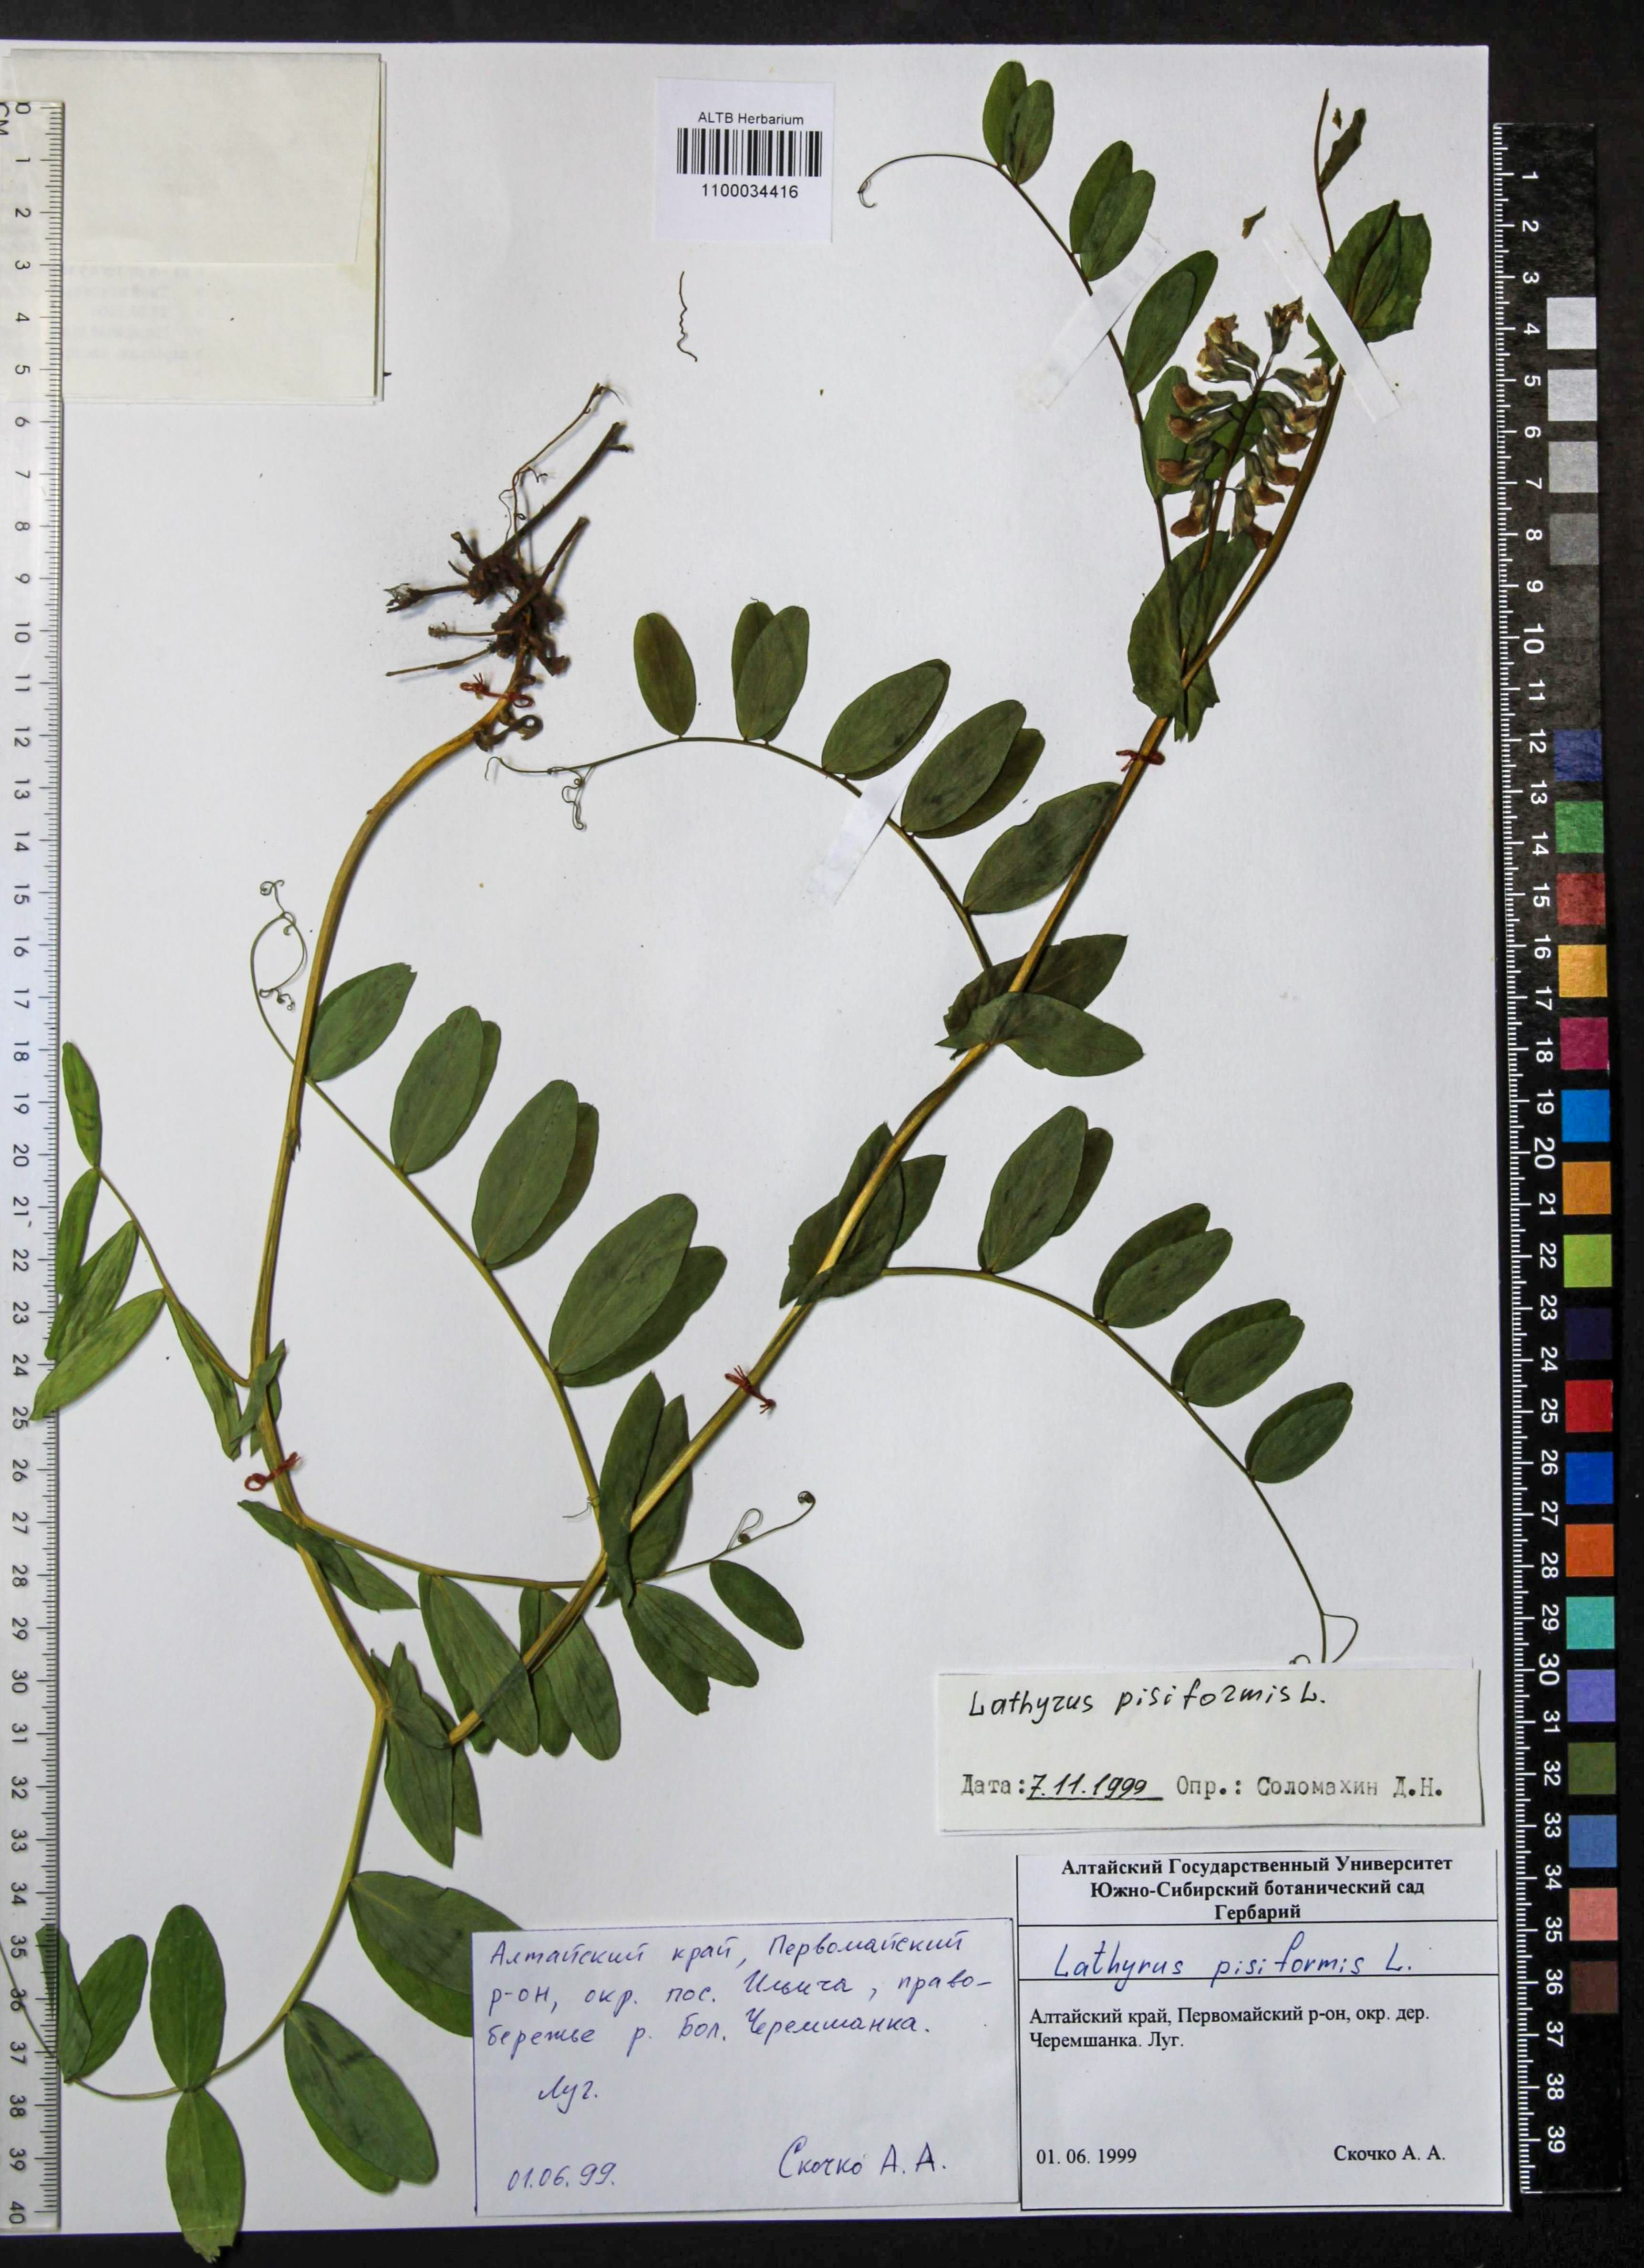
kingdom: Plantae
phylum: Tracheophyta
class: Magnoliopsida
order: Fabales
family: Fabaceae
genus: Lathyrus
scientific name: Lathyrus pisiformis
